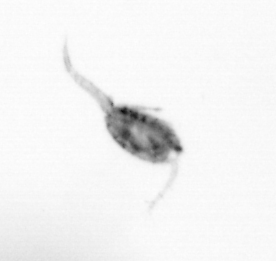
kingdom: Animalia
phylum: Arthropoda
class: Copepoda
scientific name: Copepoda
